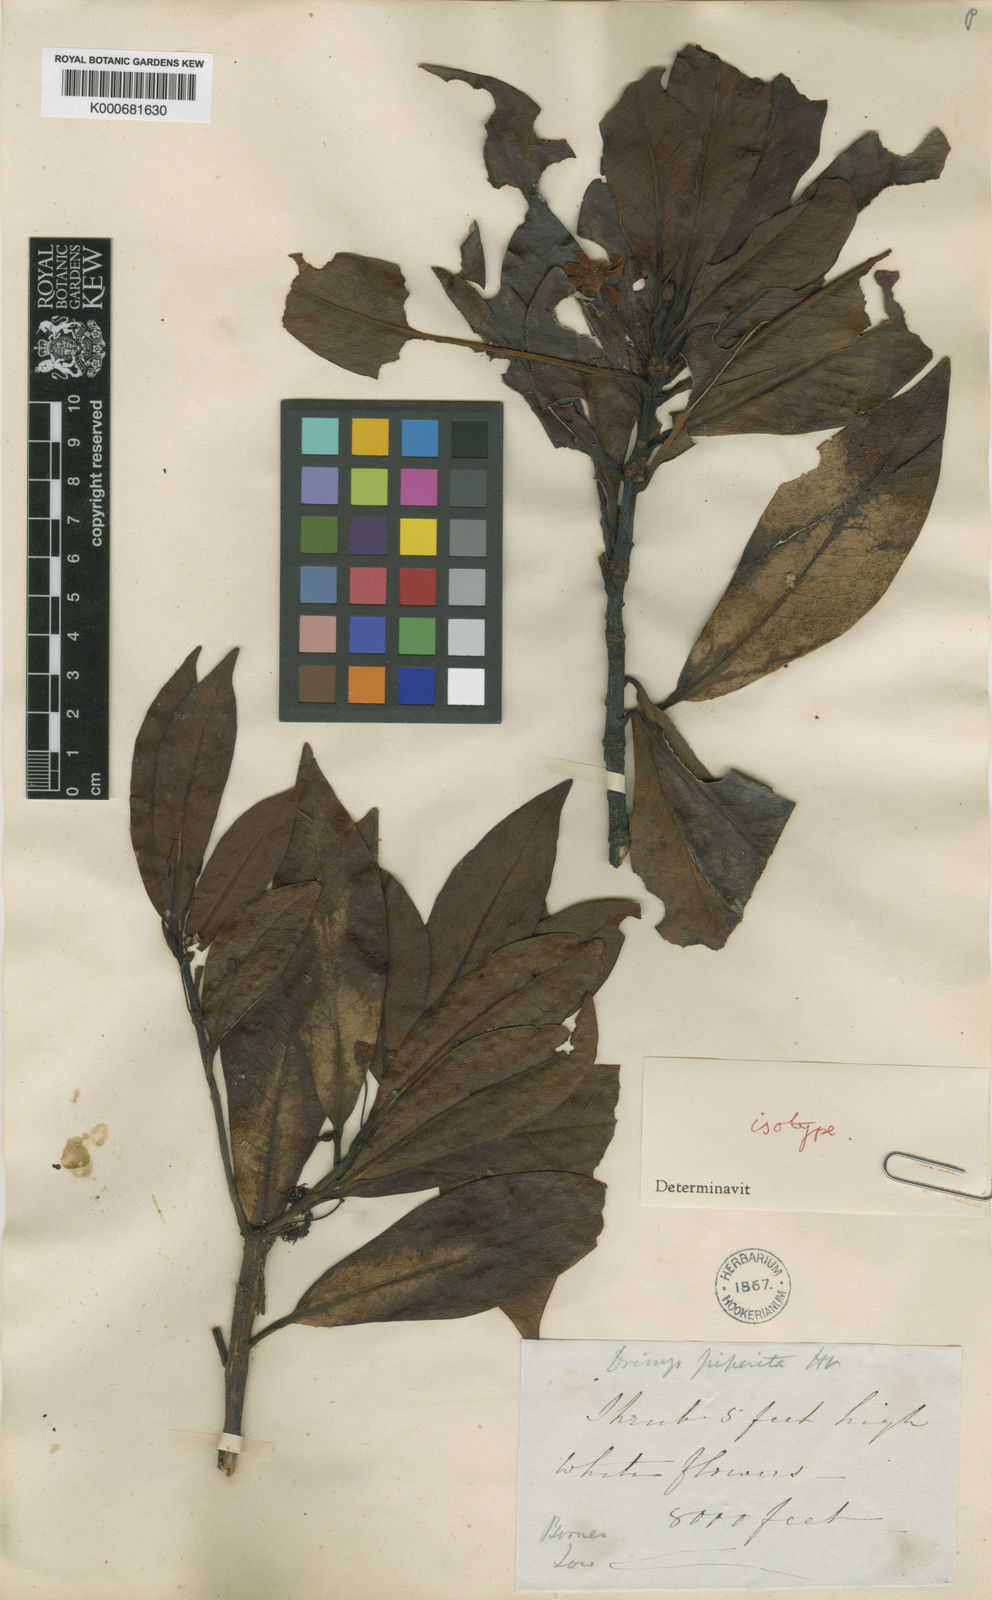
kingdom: Plantae
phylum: Tracheophyta
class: Magnoliopsida
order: Canellales
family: Winteraceae
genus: Drimys
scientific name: Drimys piperita
